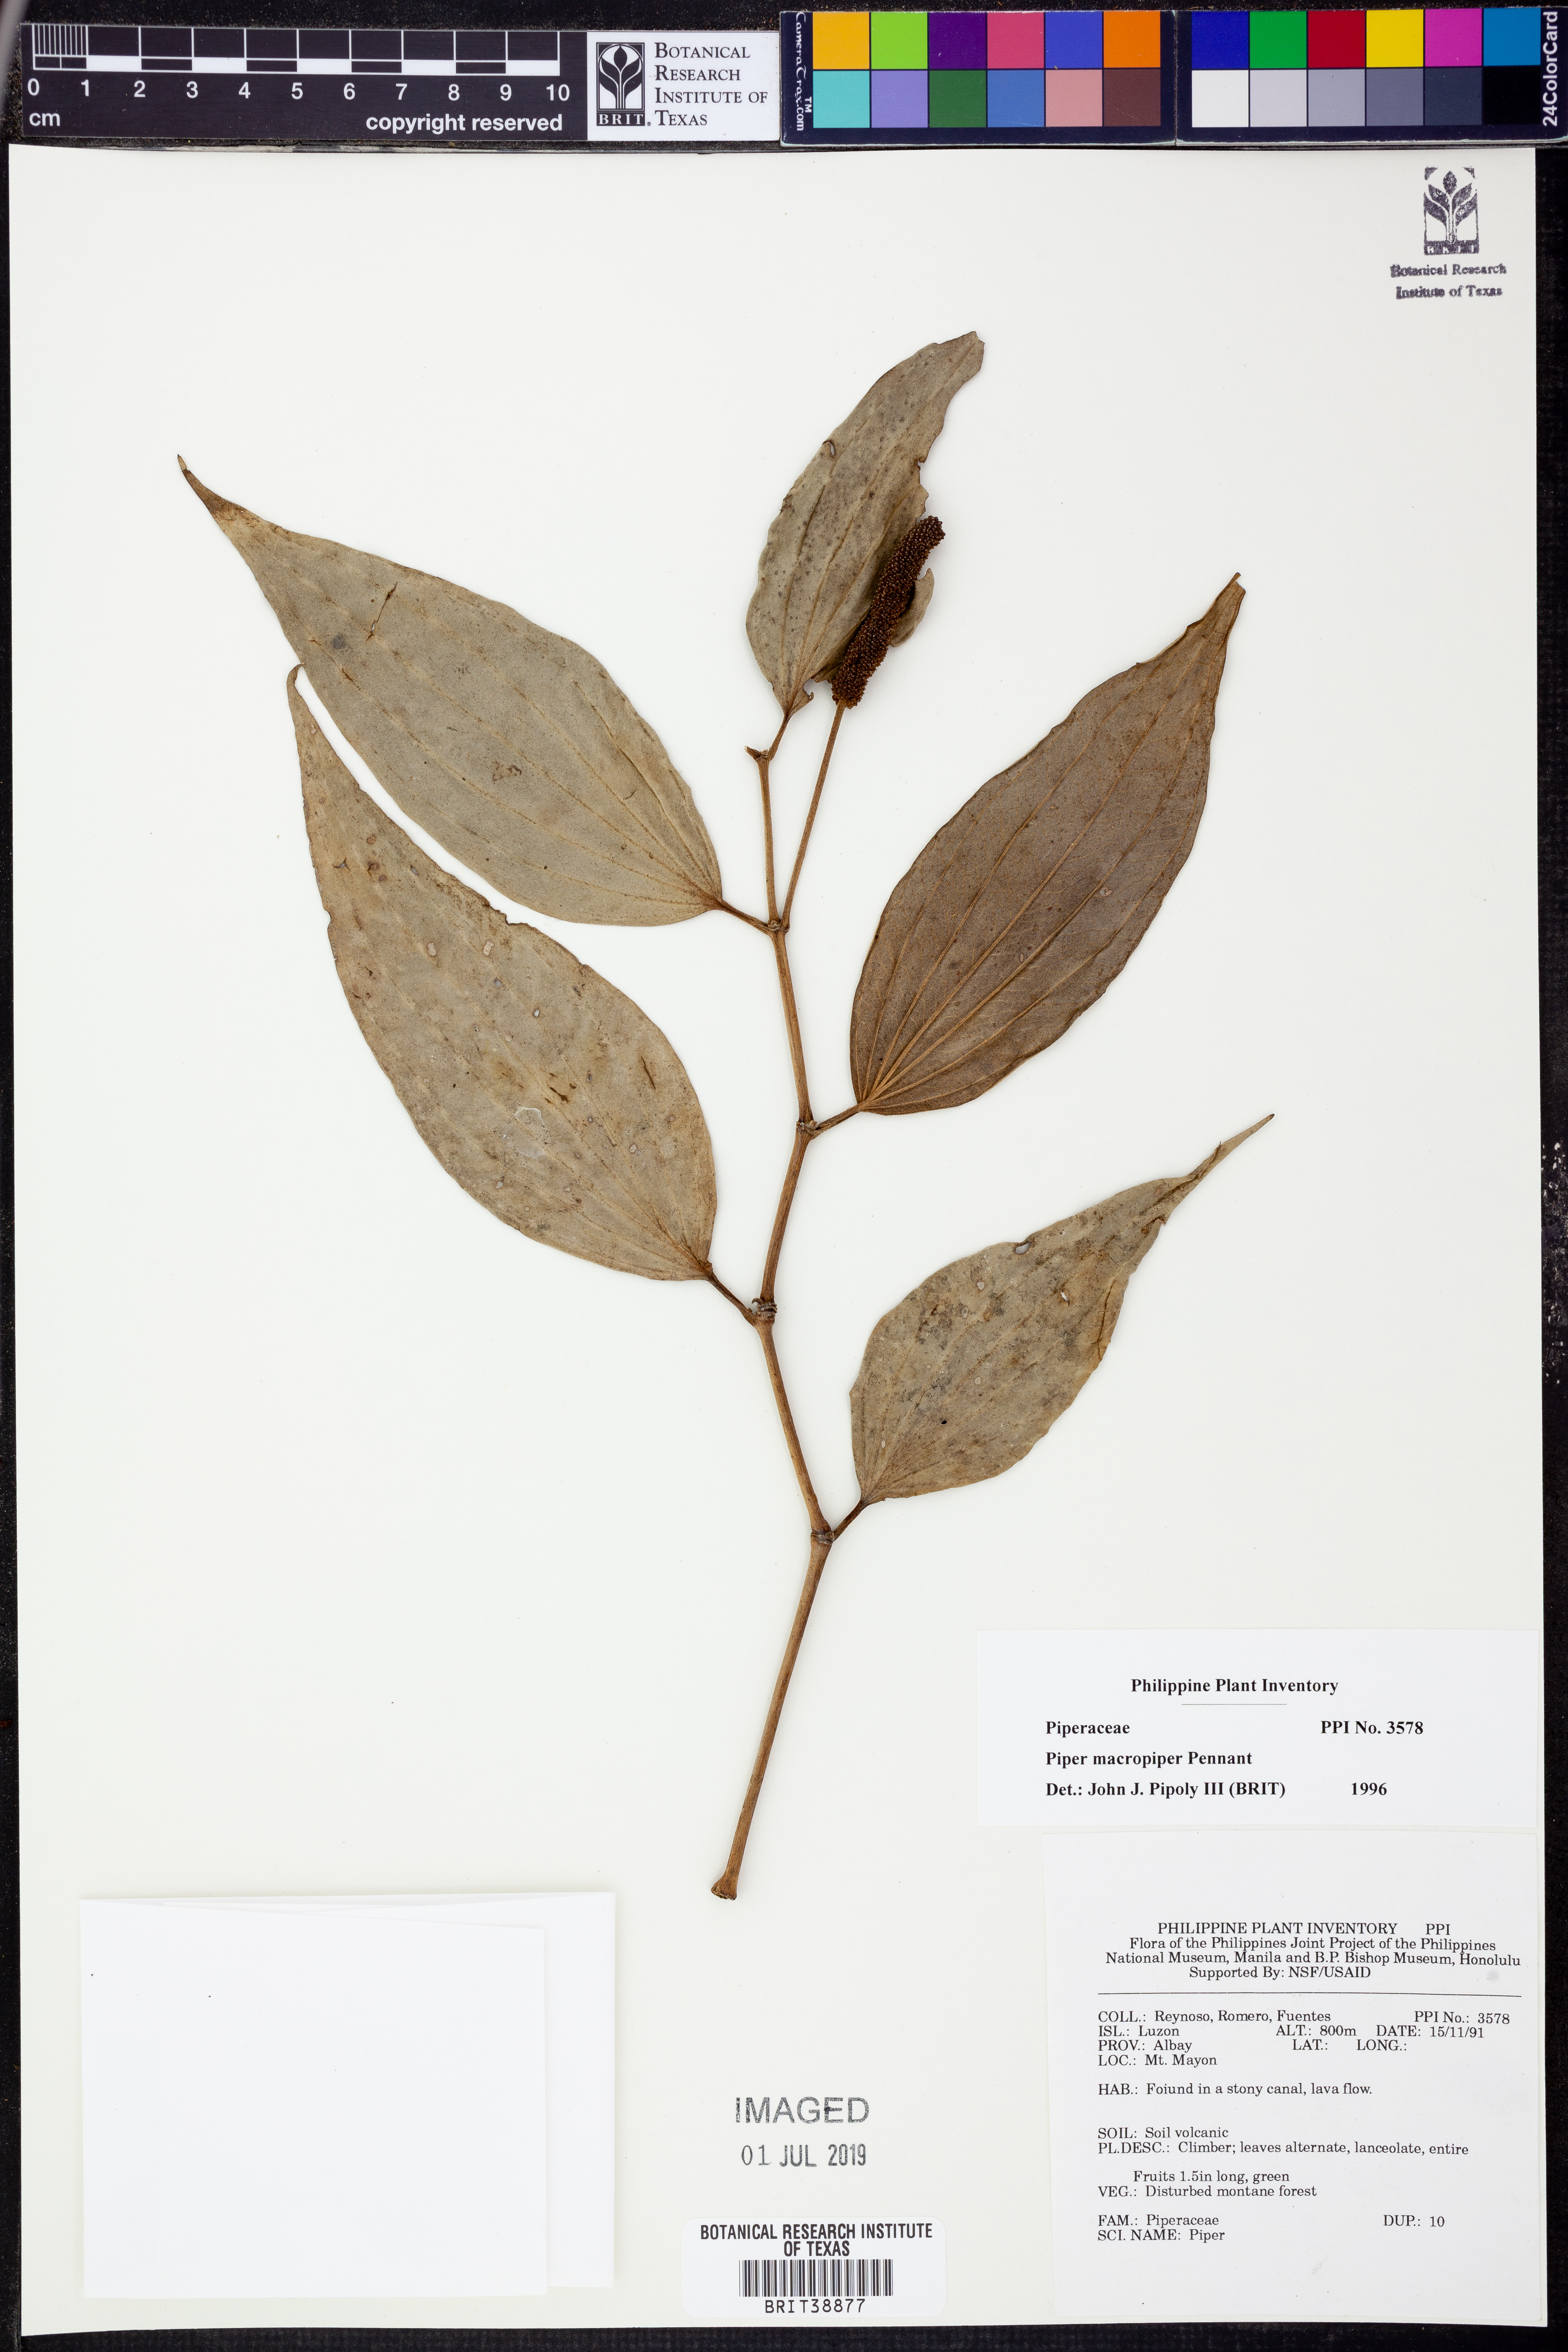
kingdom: Plantae
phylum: Tracheophyta
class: Magnoliopsida
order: Piperales
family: Piperaceae
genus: Piper
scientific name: Piper macropiper
